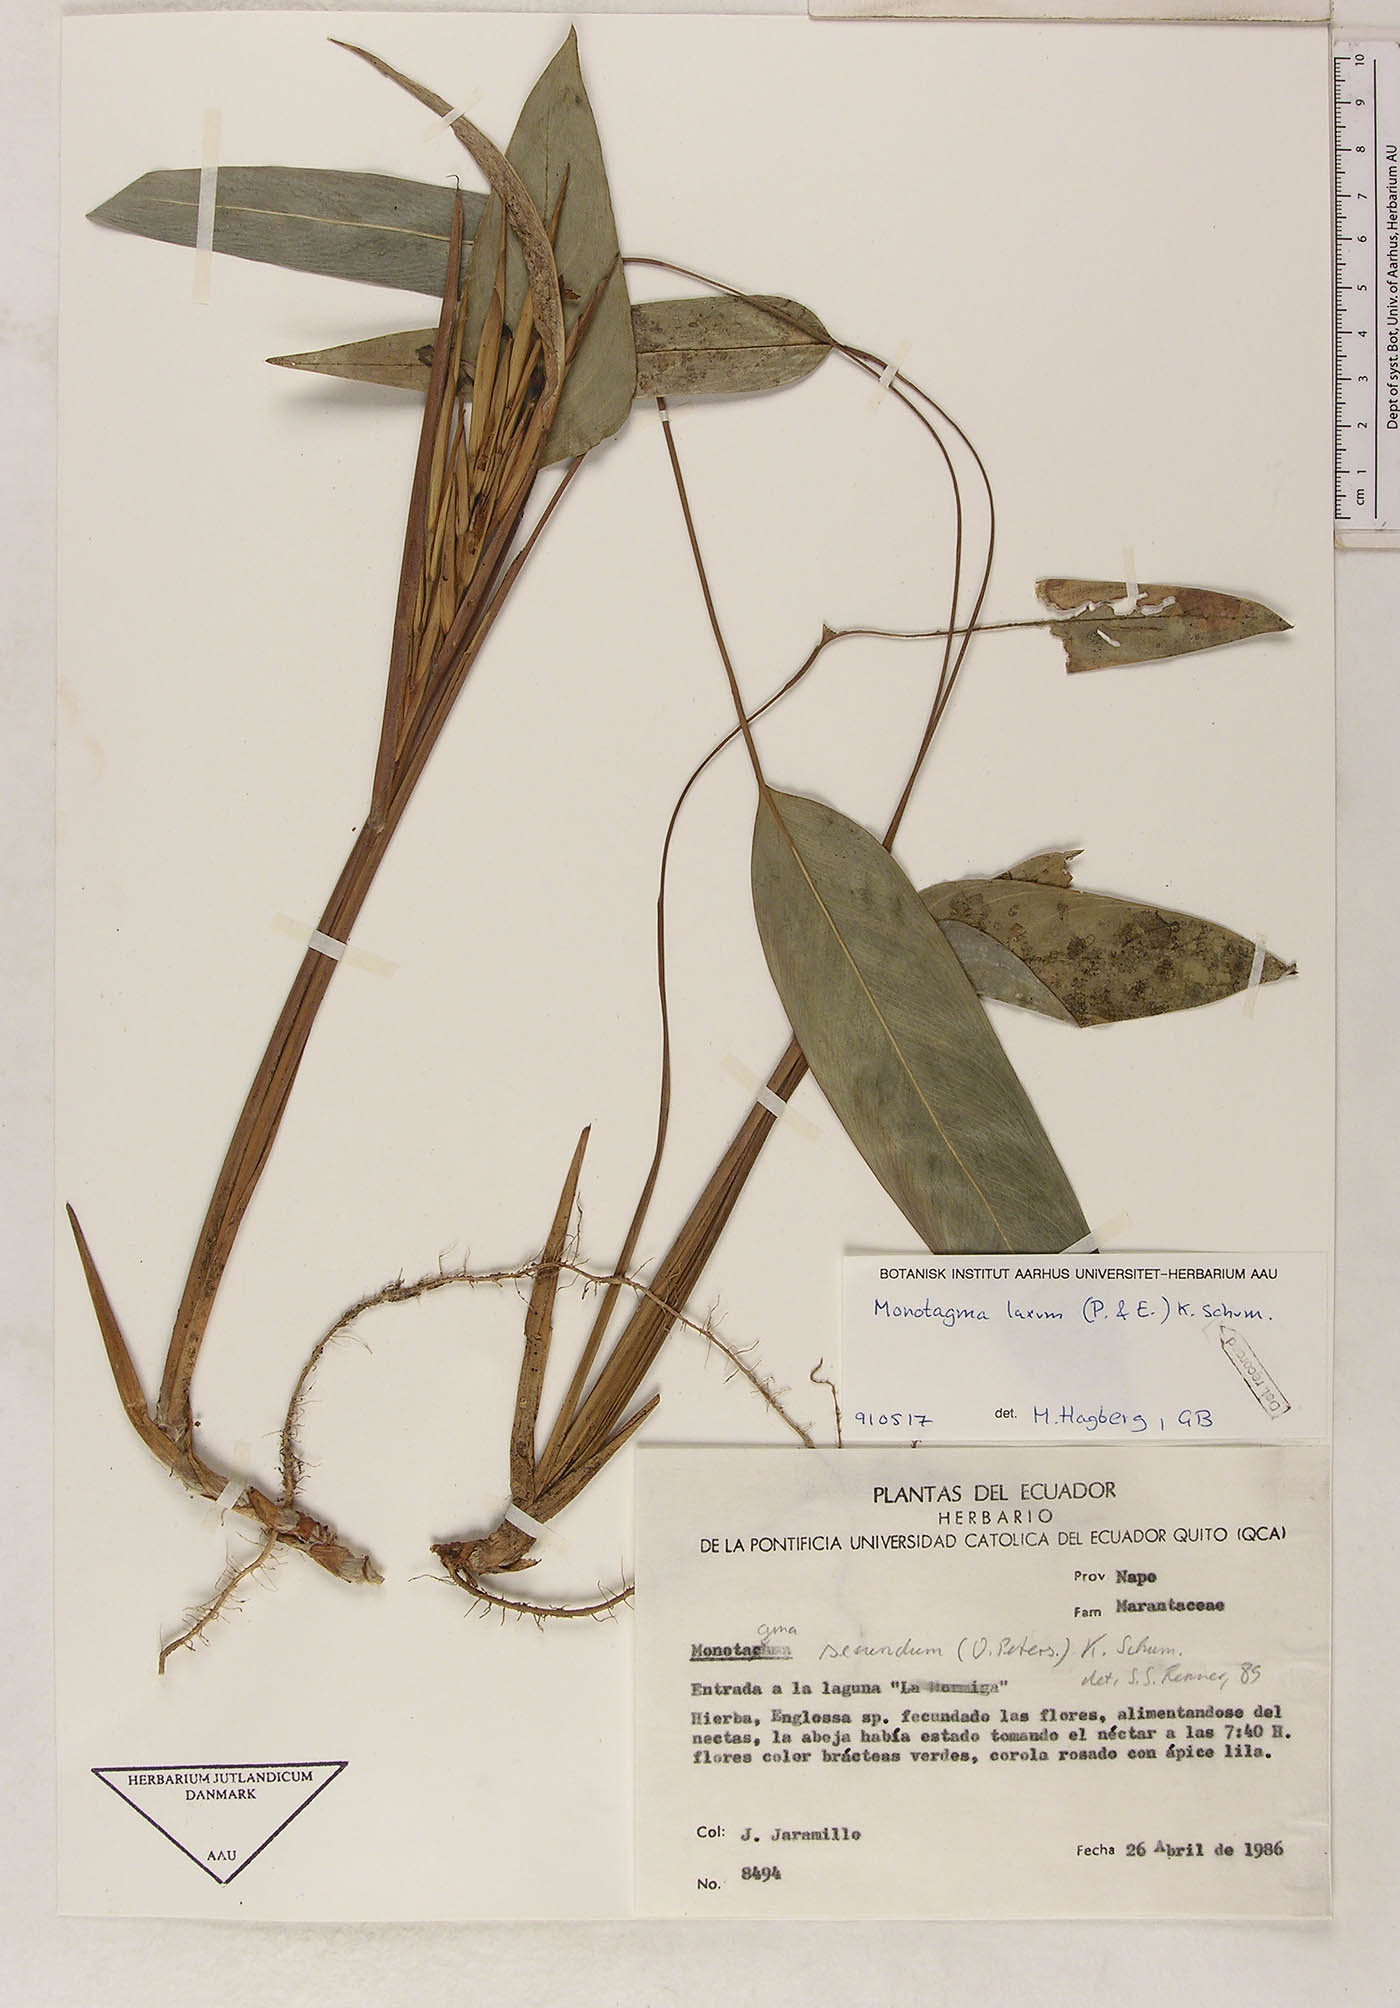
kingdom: Plantae
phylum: Tracheophyta
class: Liliopsida
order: Zingiberales
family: Marantaceae
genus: Monotagma
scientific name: Monotagma laxum
